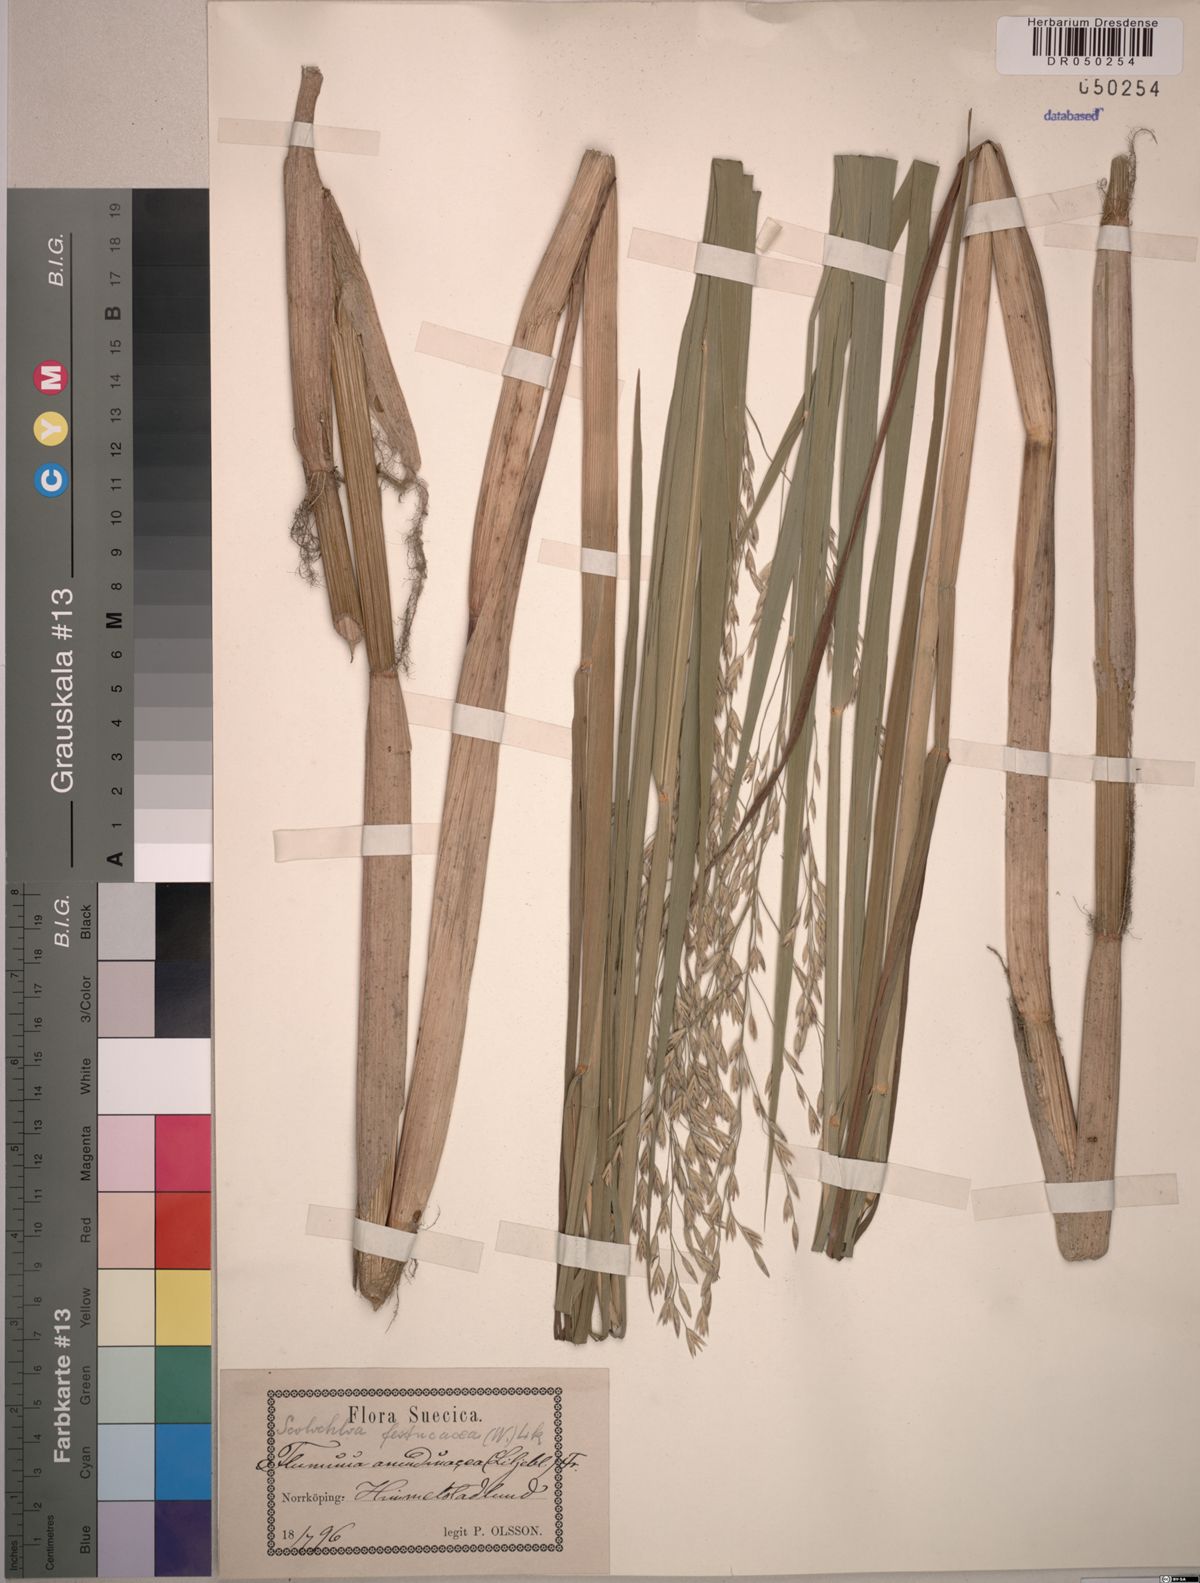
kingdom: Plantae
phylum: Tracheophyta
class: Liliopsida
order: Poales
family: Poaceae
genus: Scolochloa
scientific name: Scolochloa festucacea
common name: Common rivergrass
